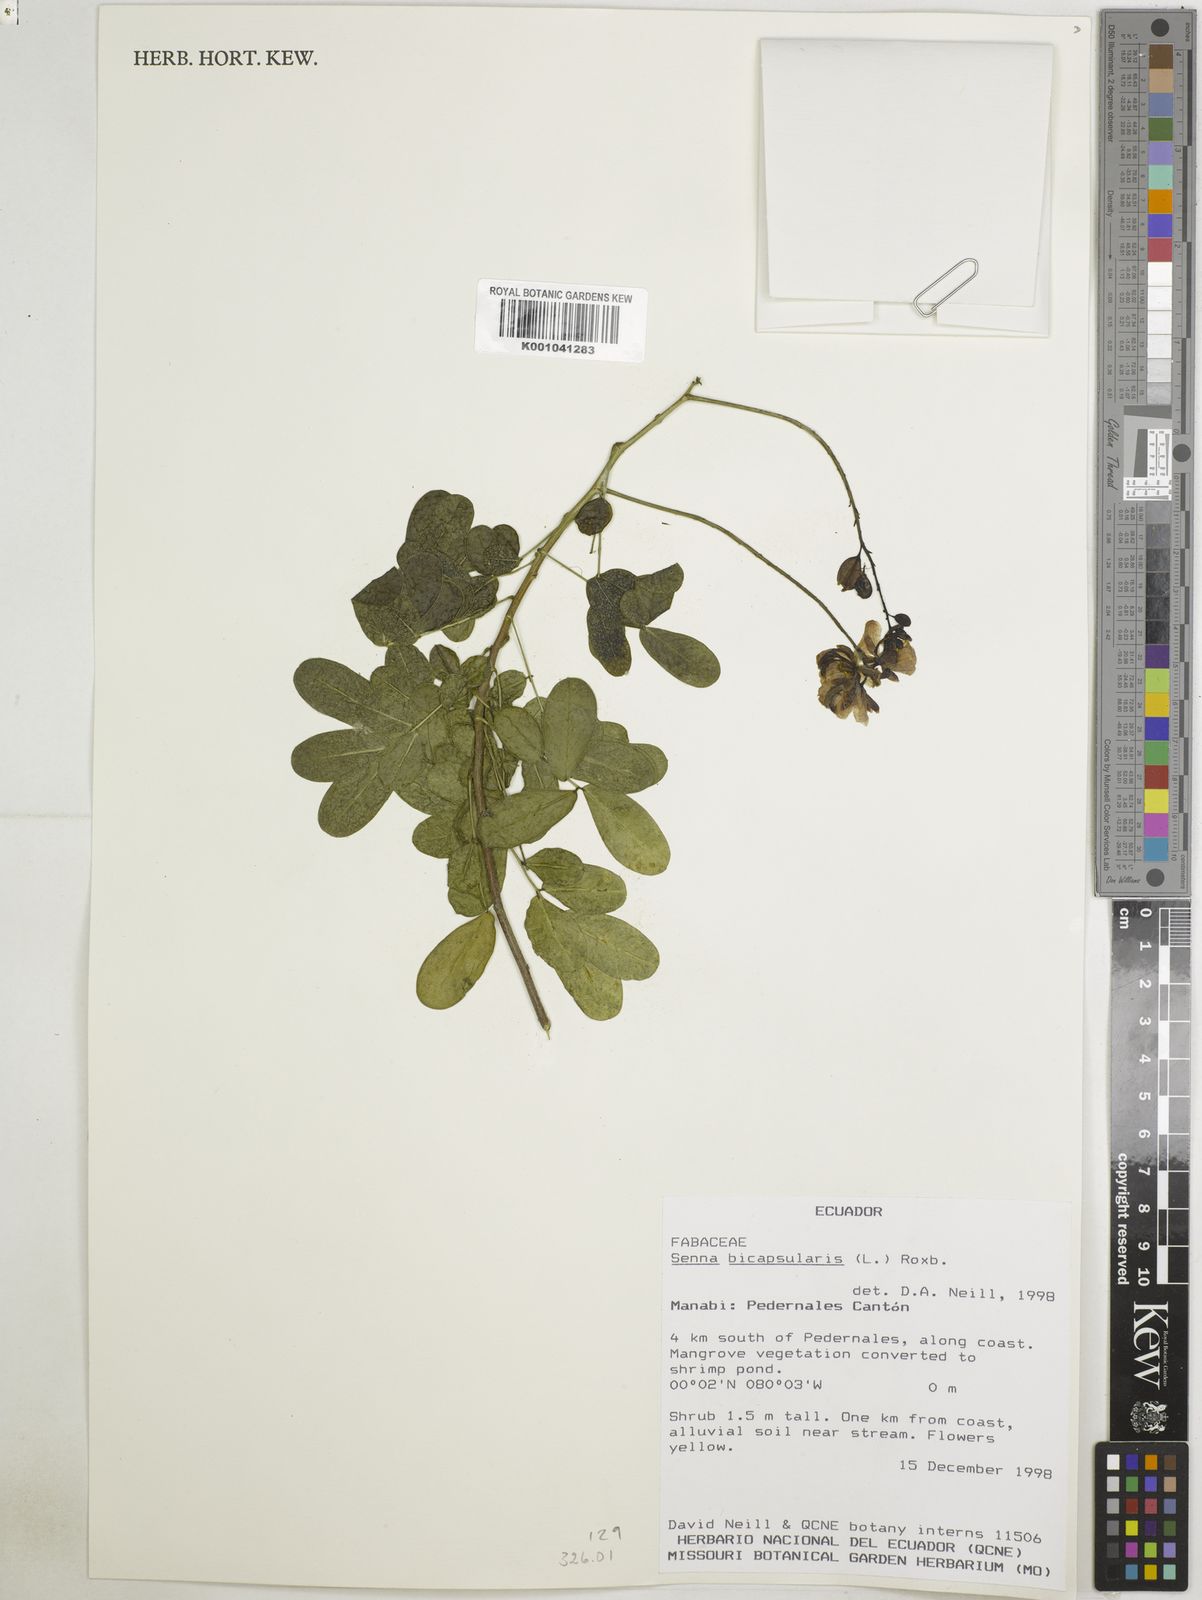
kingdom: Plantae
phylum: Tracheophyta
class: Magnoliopsida
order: Fabales
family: Fabaceae
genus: Senna
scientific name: Senna bicapsularis
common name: Christmasbush
